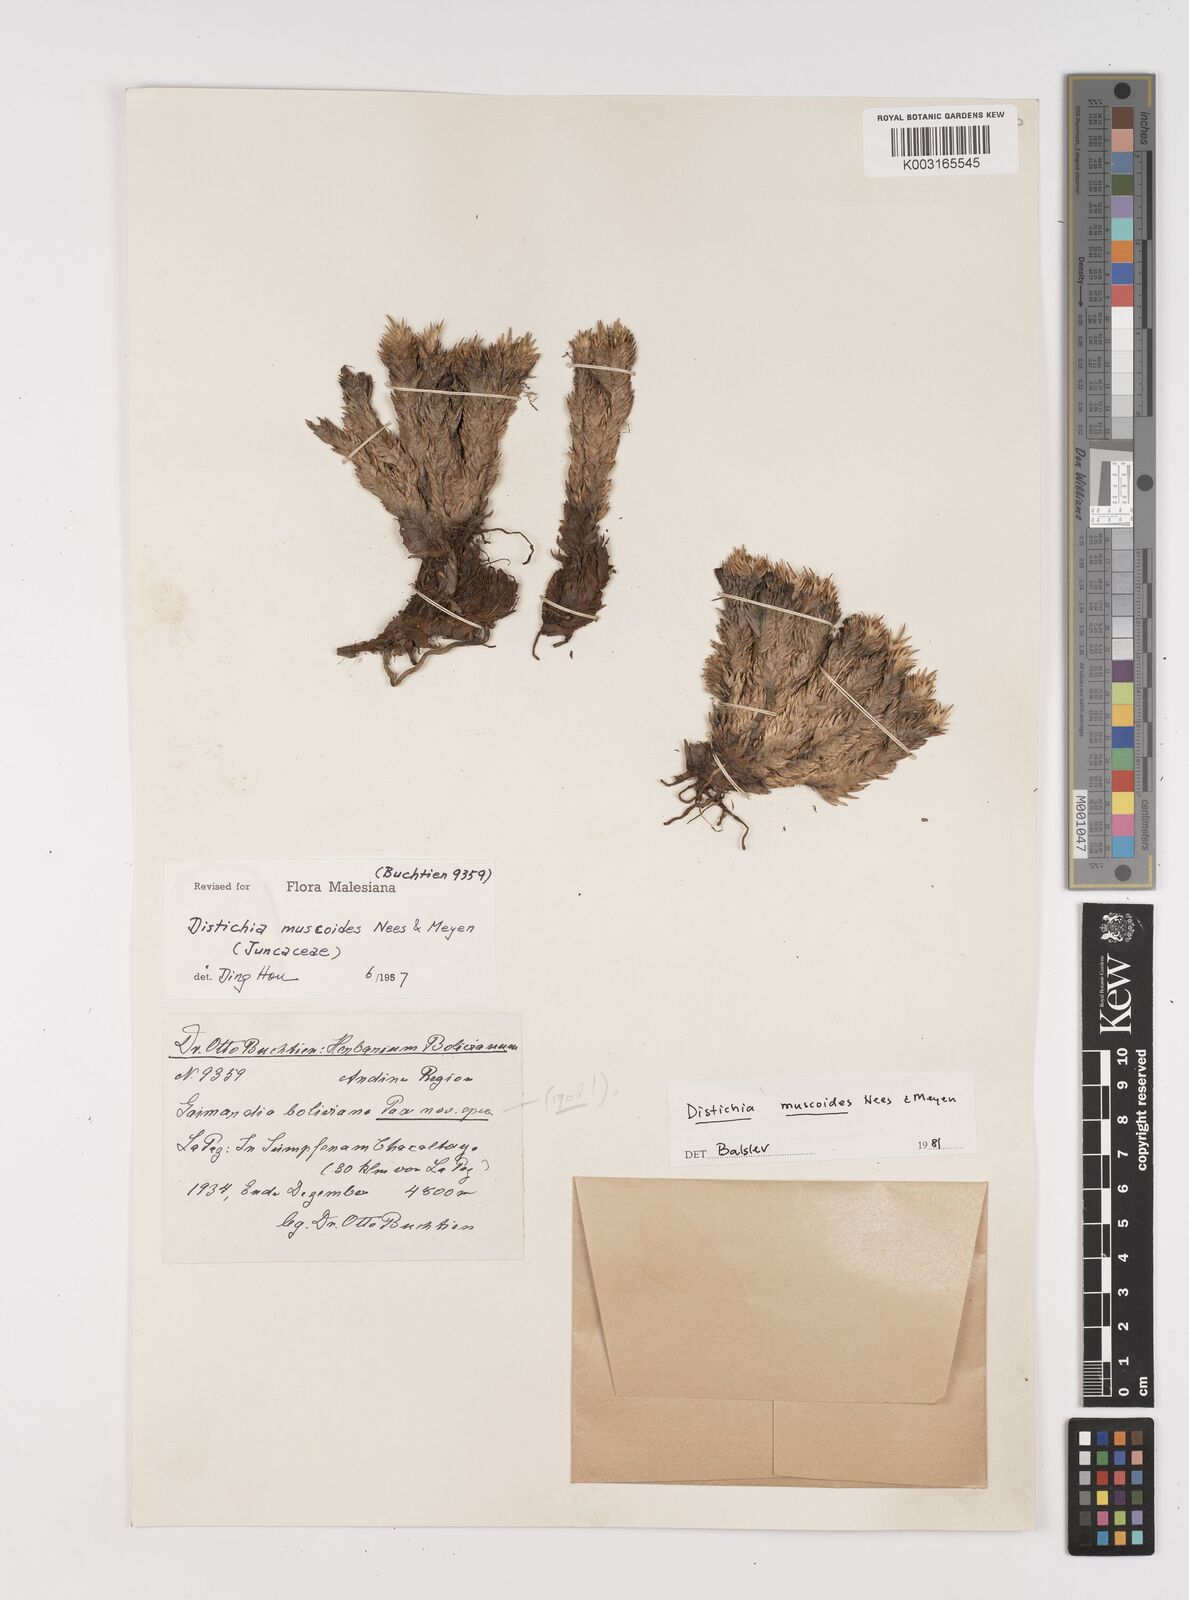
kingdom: Plantae
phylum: Tracheophyta
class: Liliopsida
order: Poales
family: Juncaceae
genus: Distichia
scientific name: Distichia muscoides
